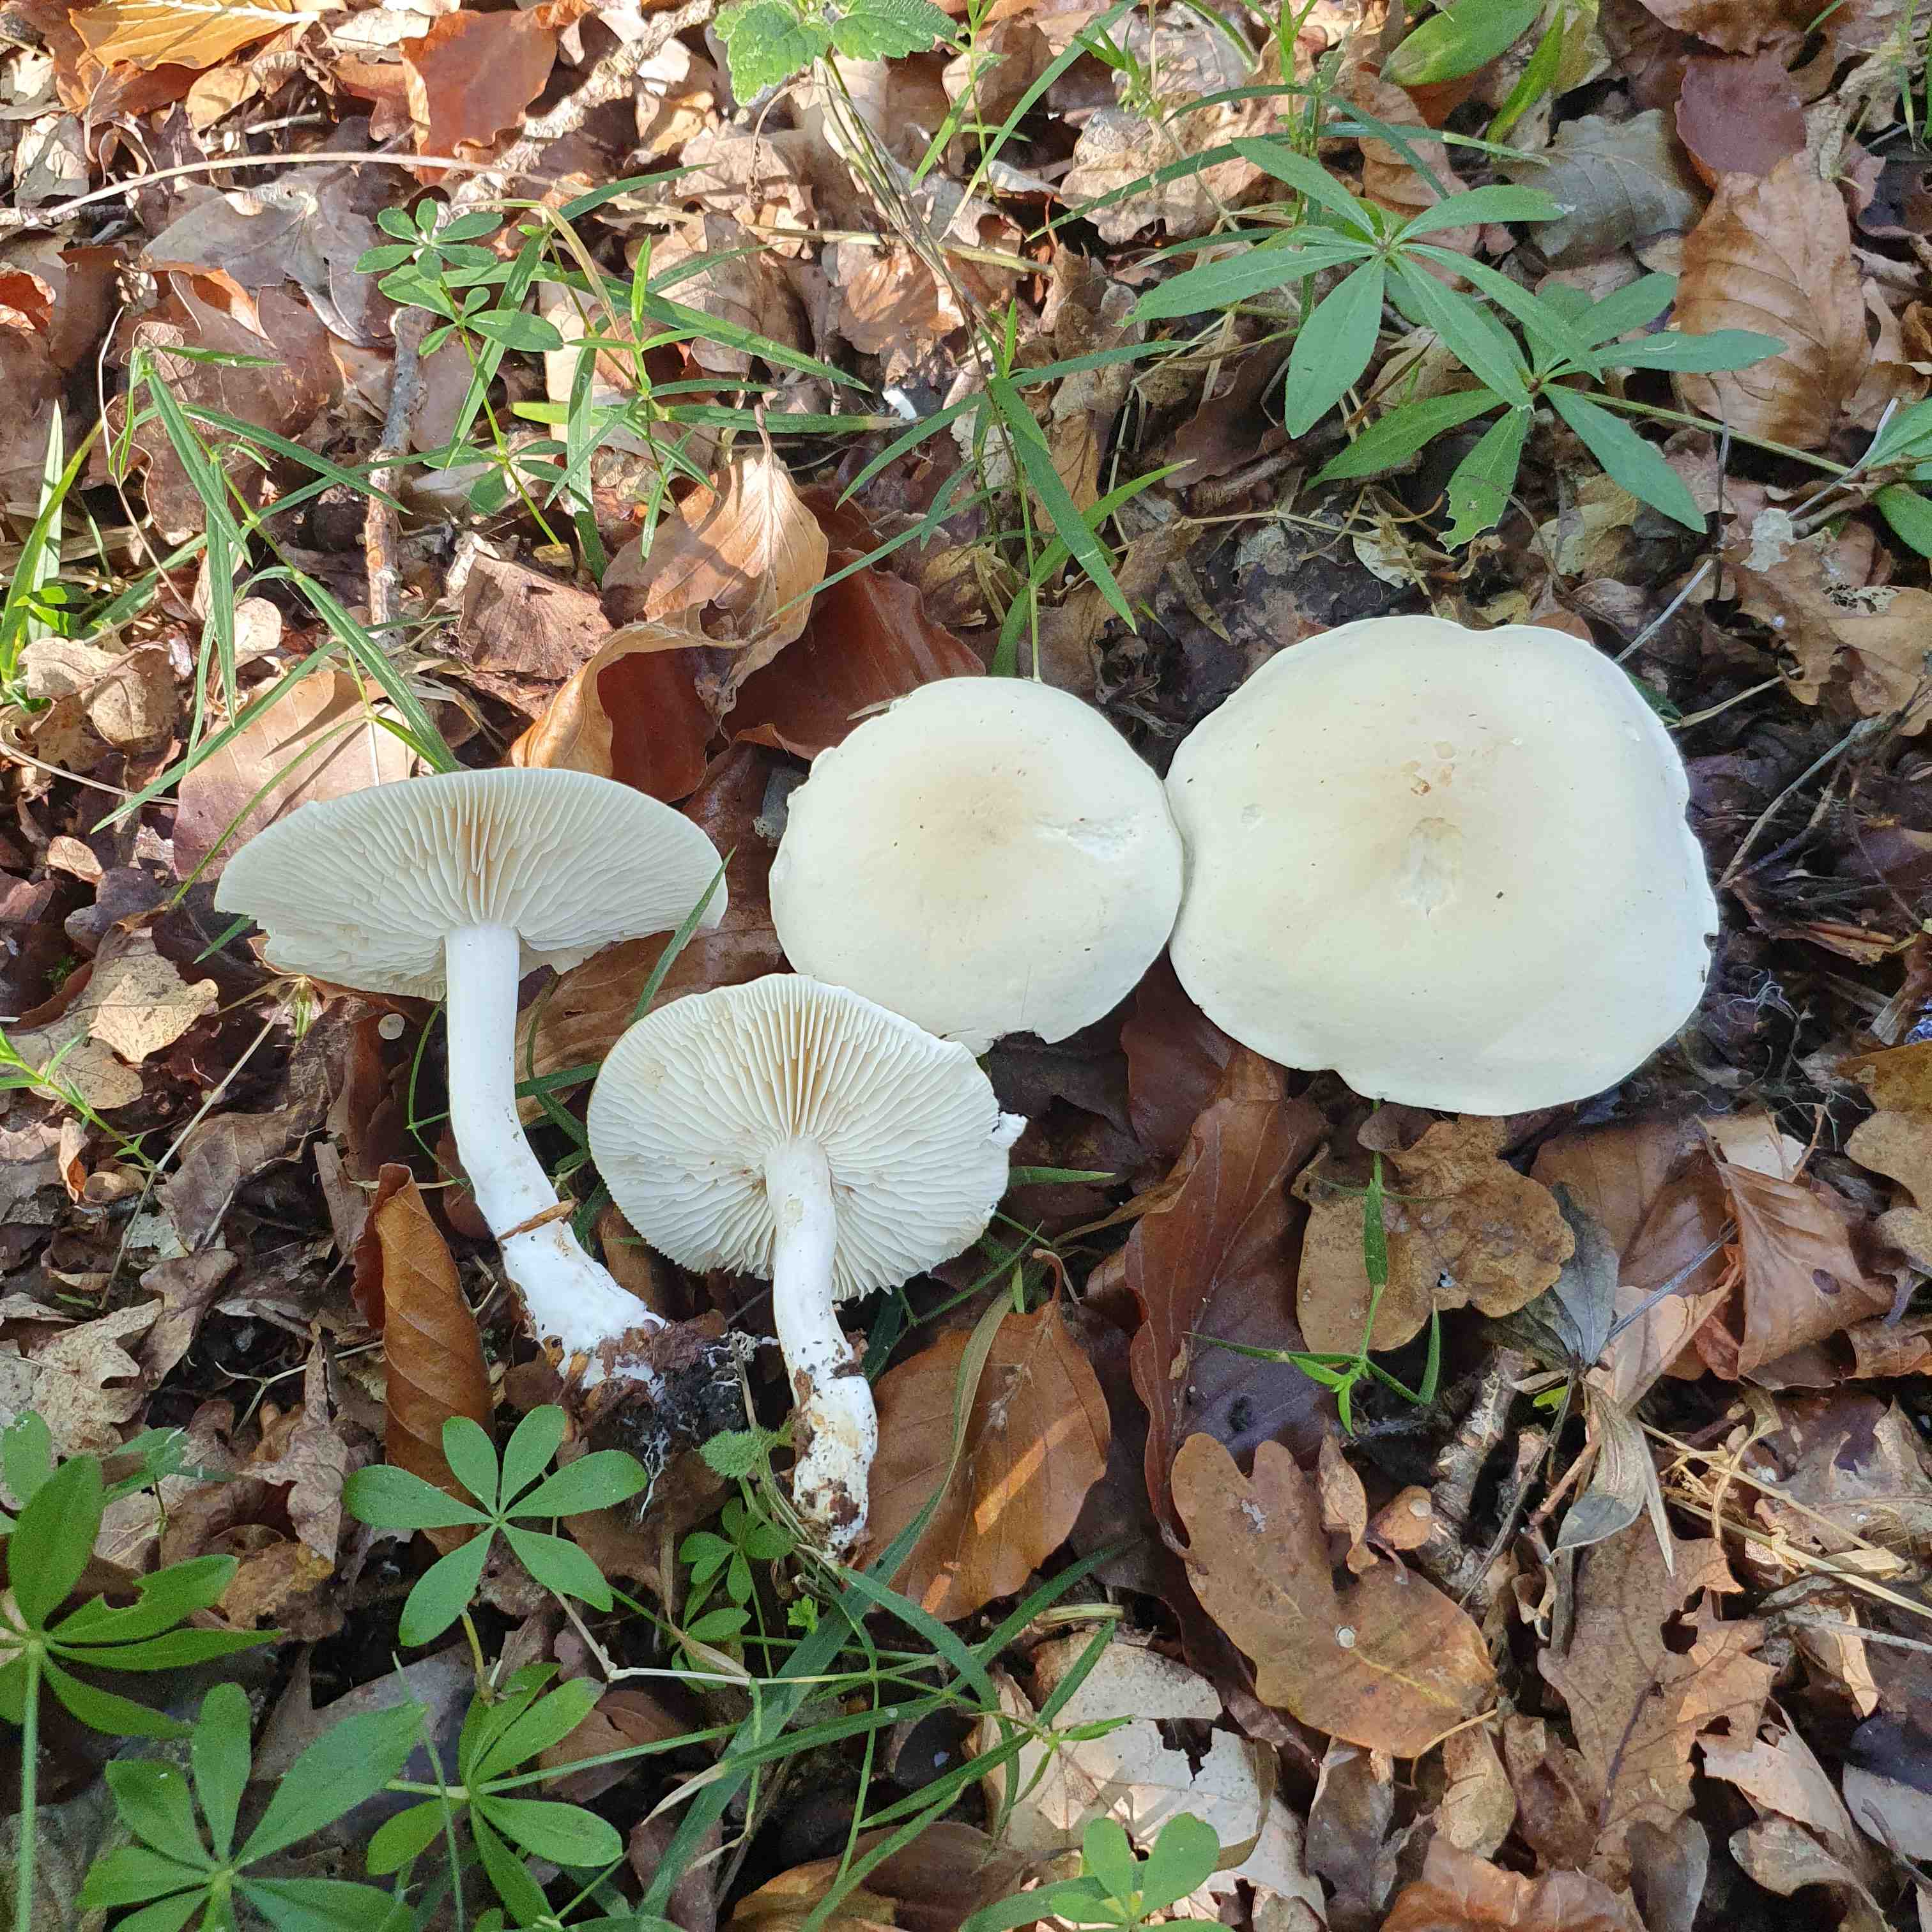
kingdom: Fungi
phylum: Basidiomycota
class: Agaricomycetes
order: Agaricales
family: Tricholomataceae
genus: Tricholoma
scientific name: Tricholoma album
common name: honning-ridderhat
